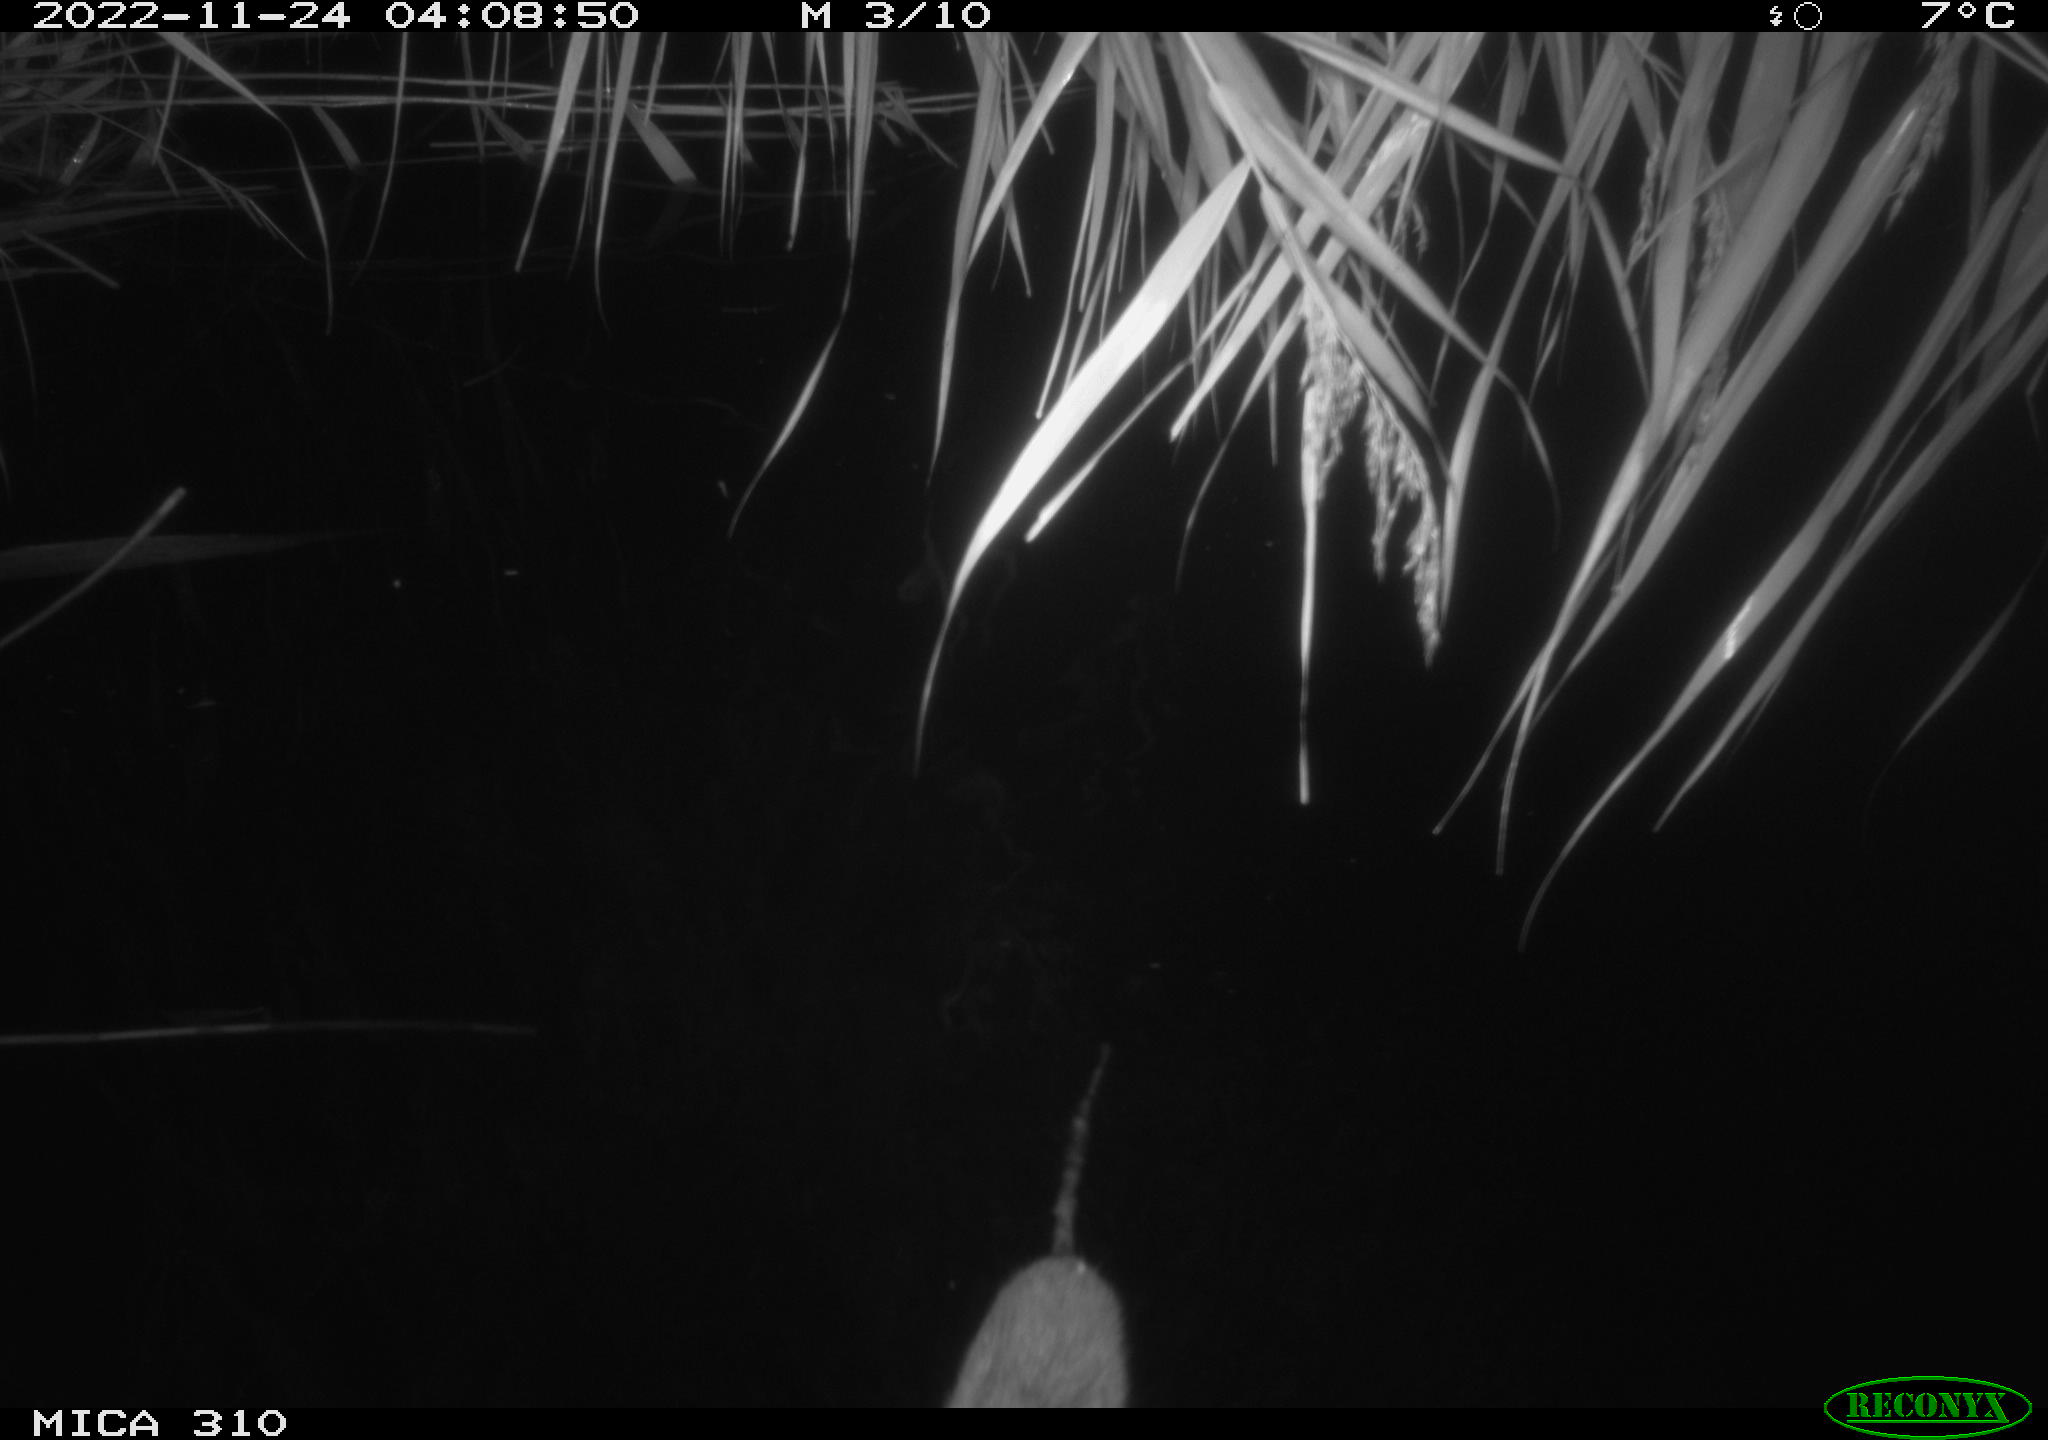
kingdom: Animalia
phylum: Chordata
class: Mammalia
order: Rodentia
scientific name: Rodentia
